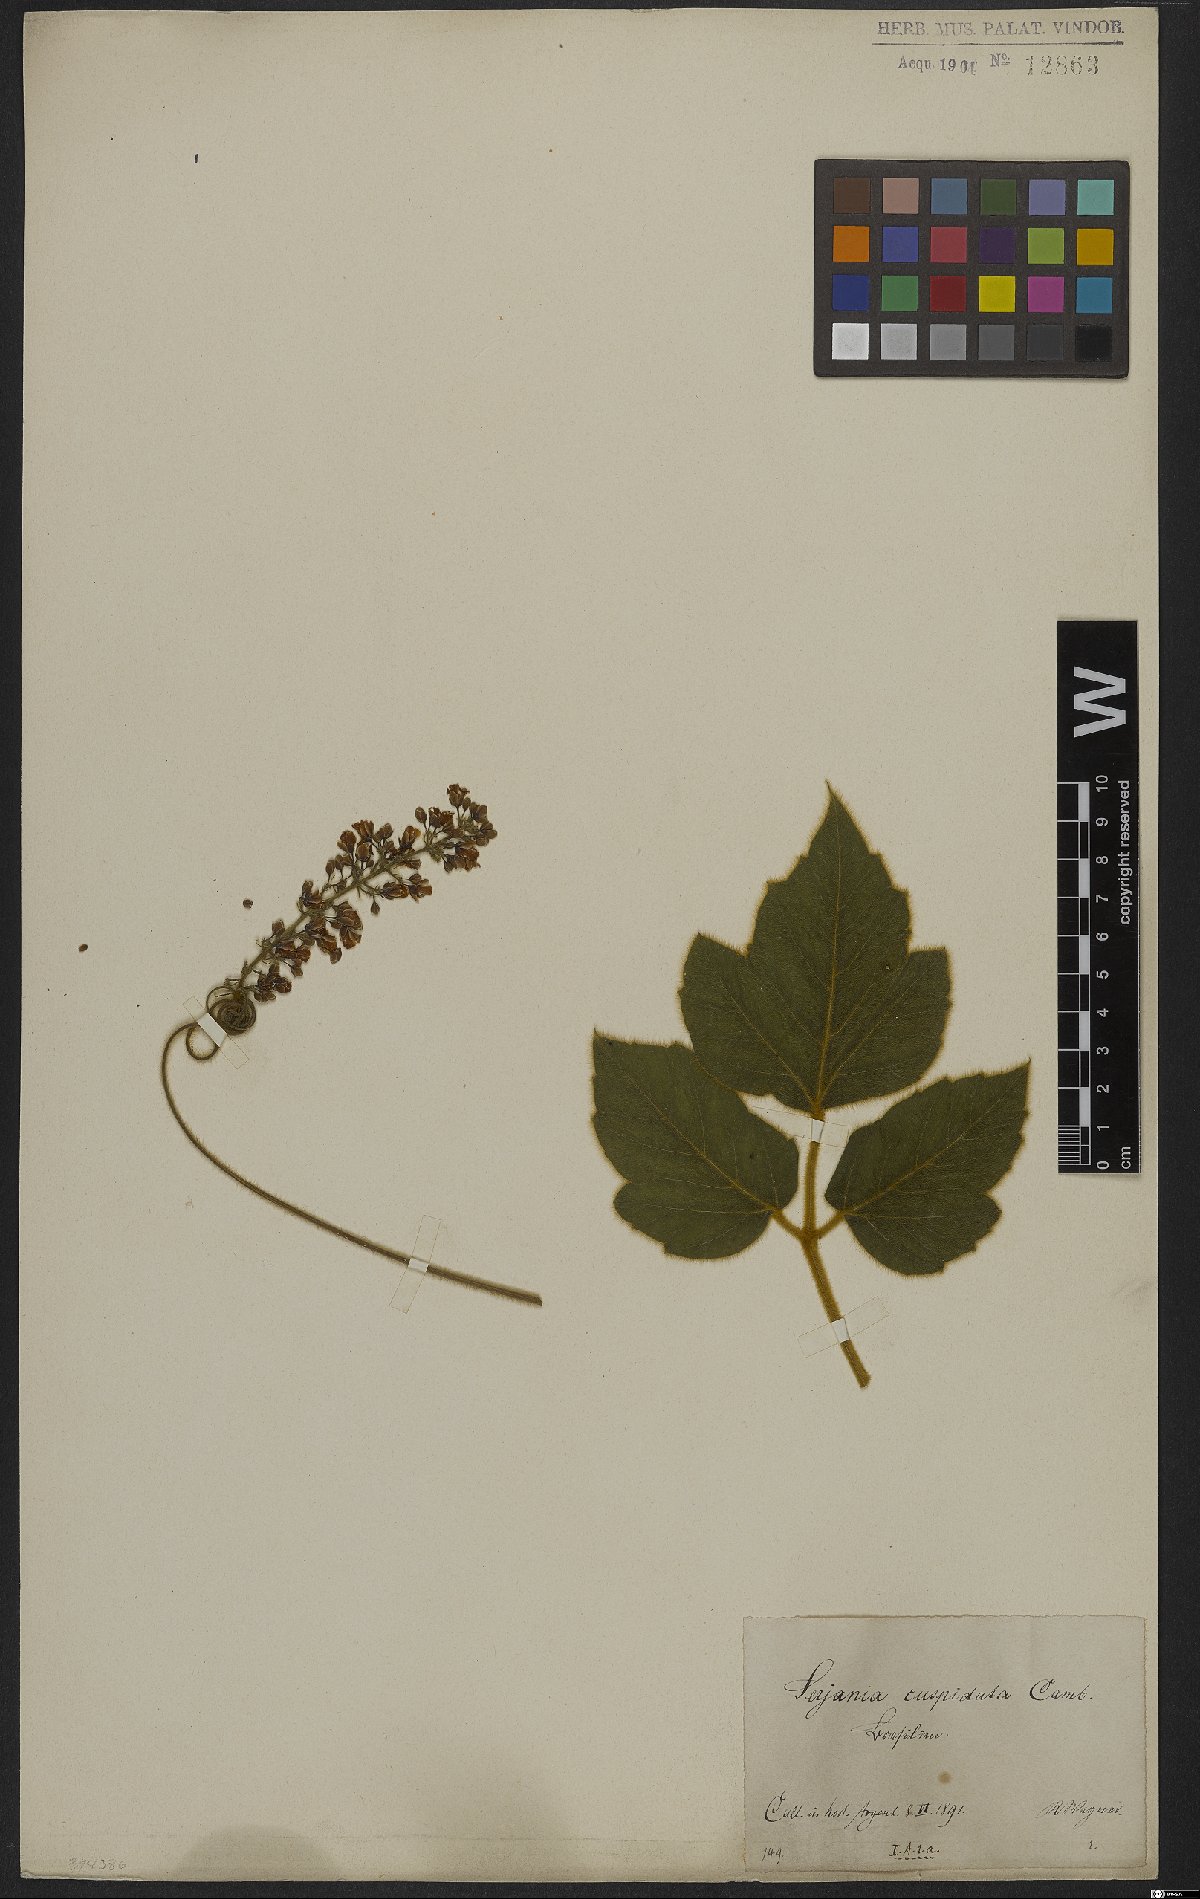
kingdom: Plantae
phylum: Tracheophyta
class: Magnoliopsida
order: Sapindales
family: Sapindaceae
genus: Serjania
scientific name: Serjania ferruginea
